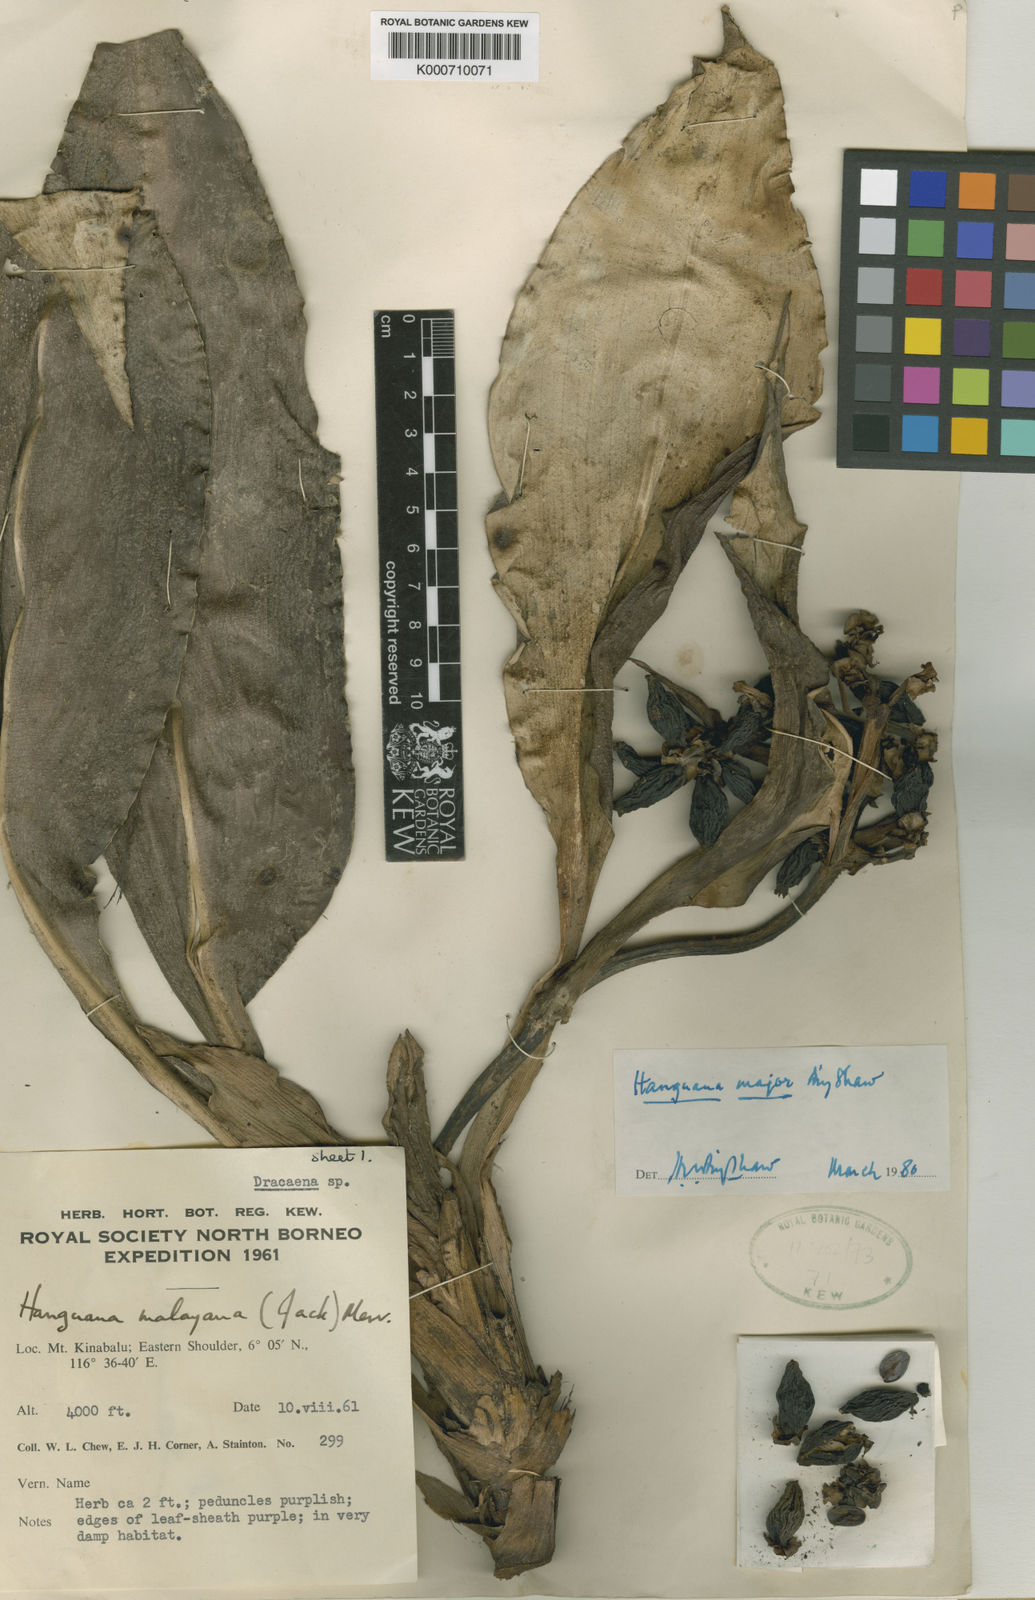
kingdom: Plantae
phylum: Tracheophyta
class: Liliopsida
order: Commelinales
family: Hanguanaceae
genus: Hanguana
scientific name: Hanguana major
